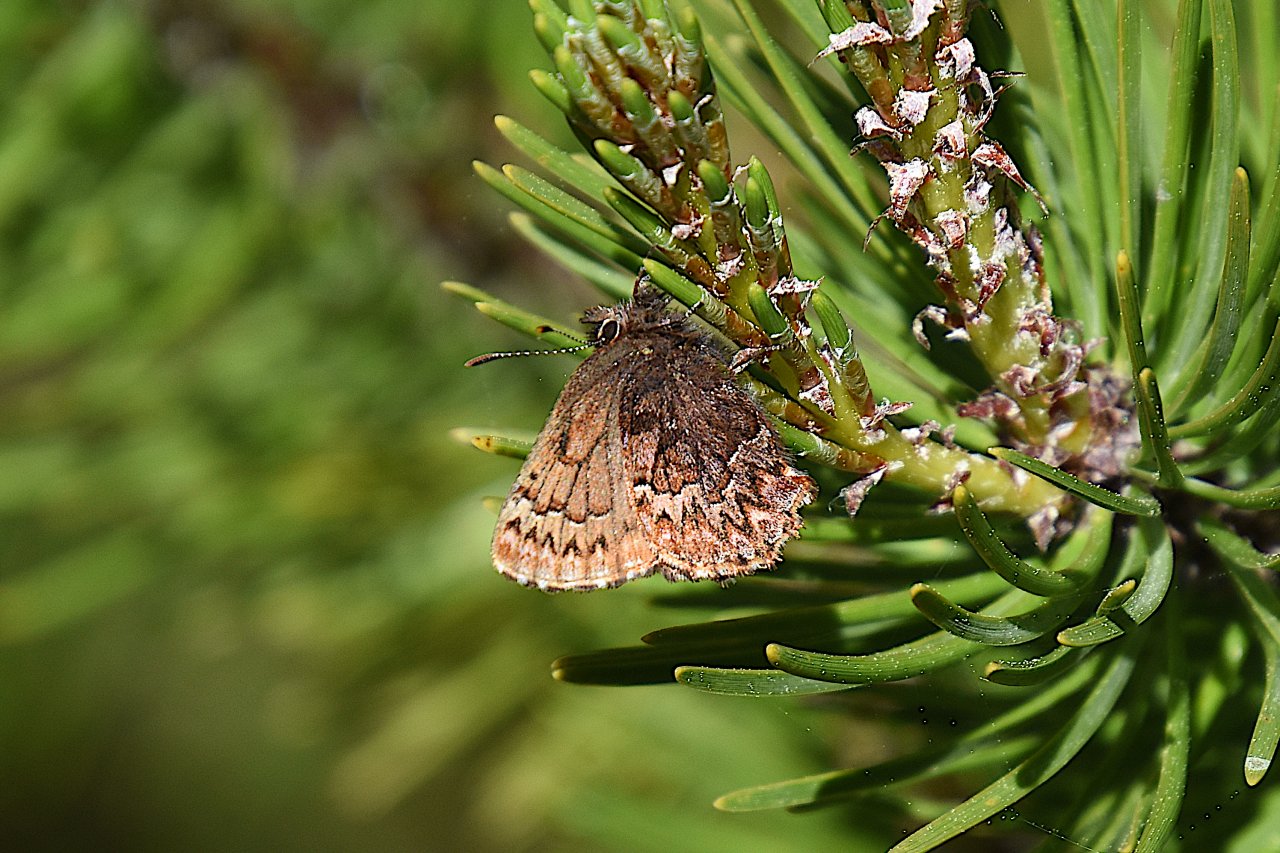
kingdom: Animalia
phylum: Arthropoda
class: Insecta
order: Lepidoptera
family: Lycaenidae
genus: Incisalia
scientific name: Incisalia eryphon
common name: Western Pine Elfin
